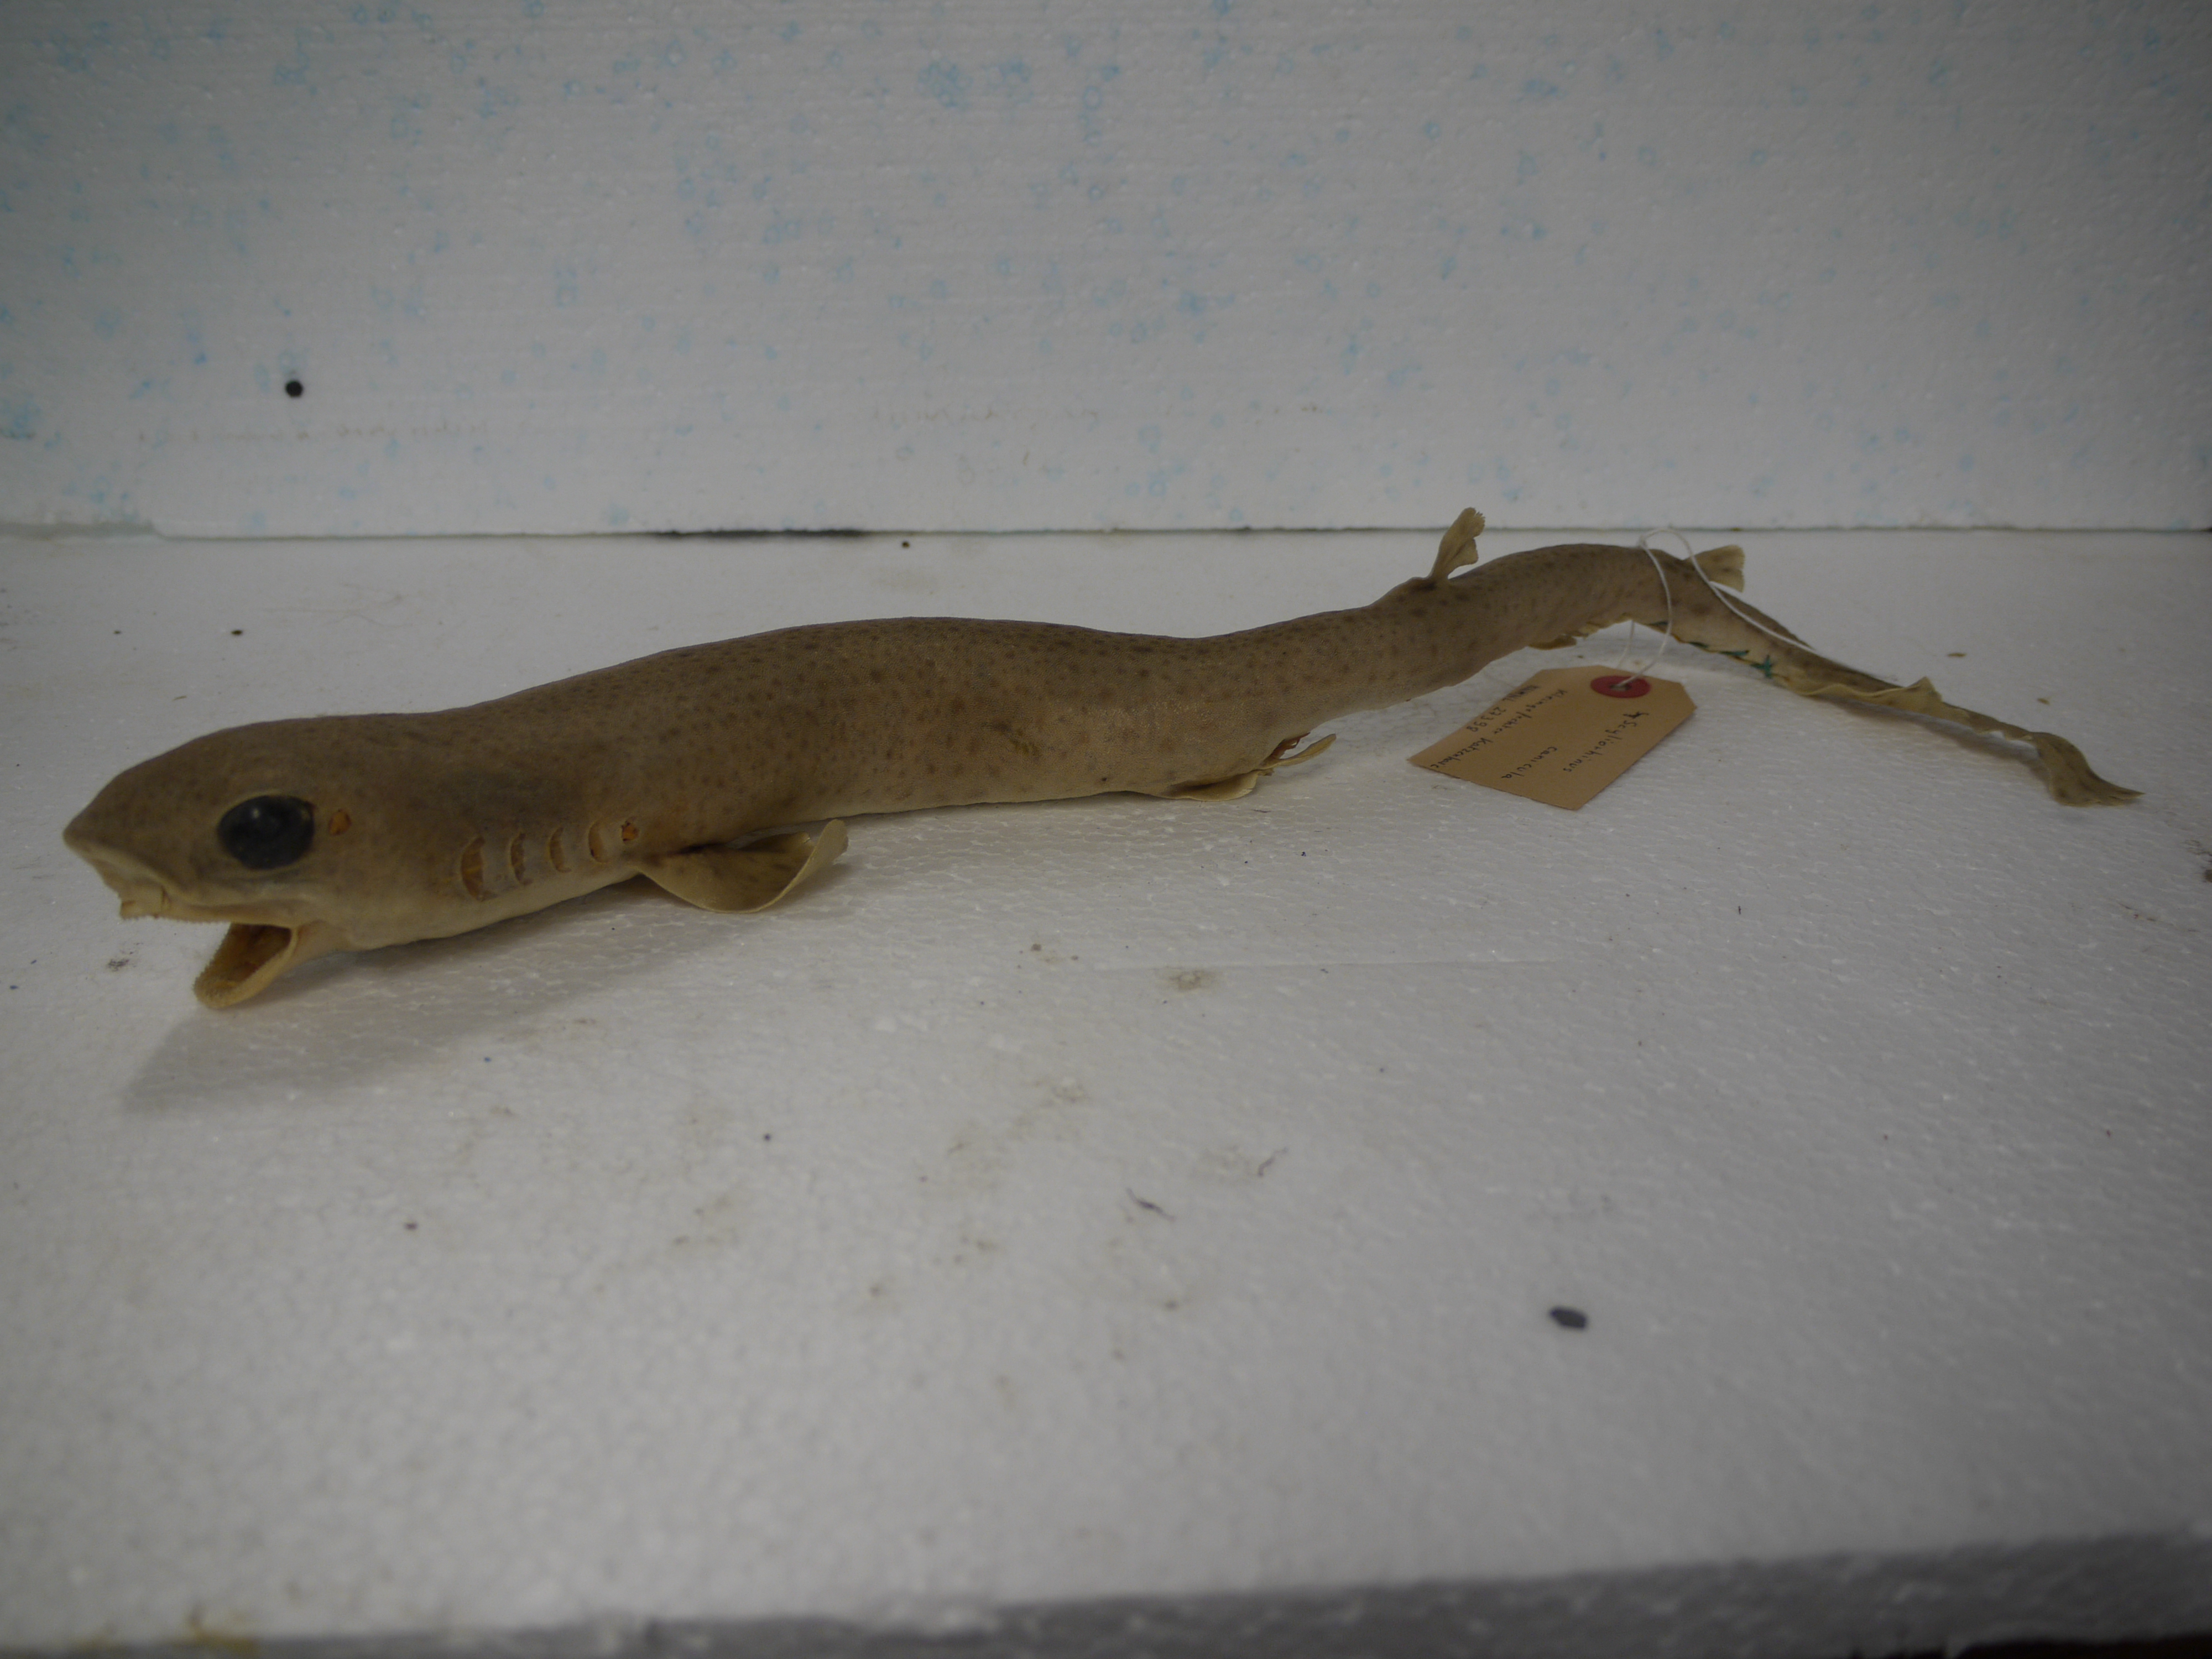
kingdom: Animalia
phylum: Chordata
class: Elasmobranchii
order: Carcharhiniformes
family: Scyliorhinidae
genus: Scyliorhinus
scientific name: Scyliorhinus canicula
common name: Lesser spotted dogfish
